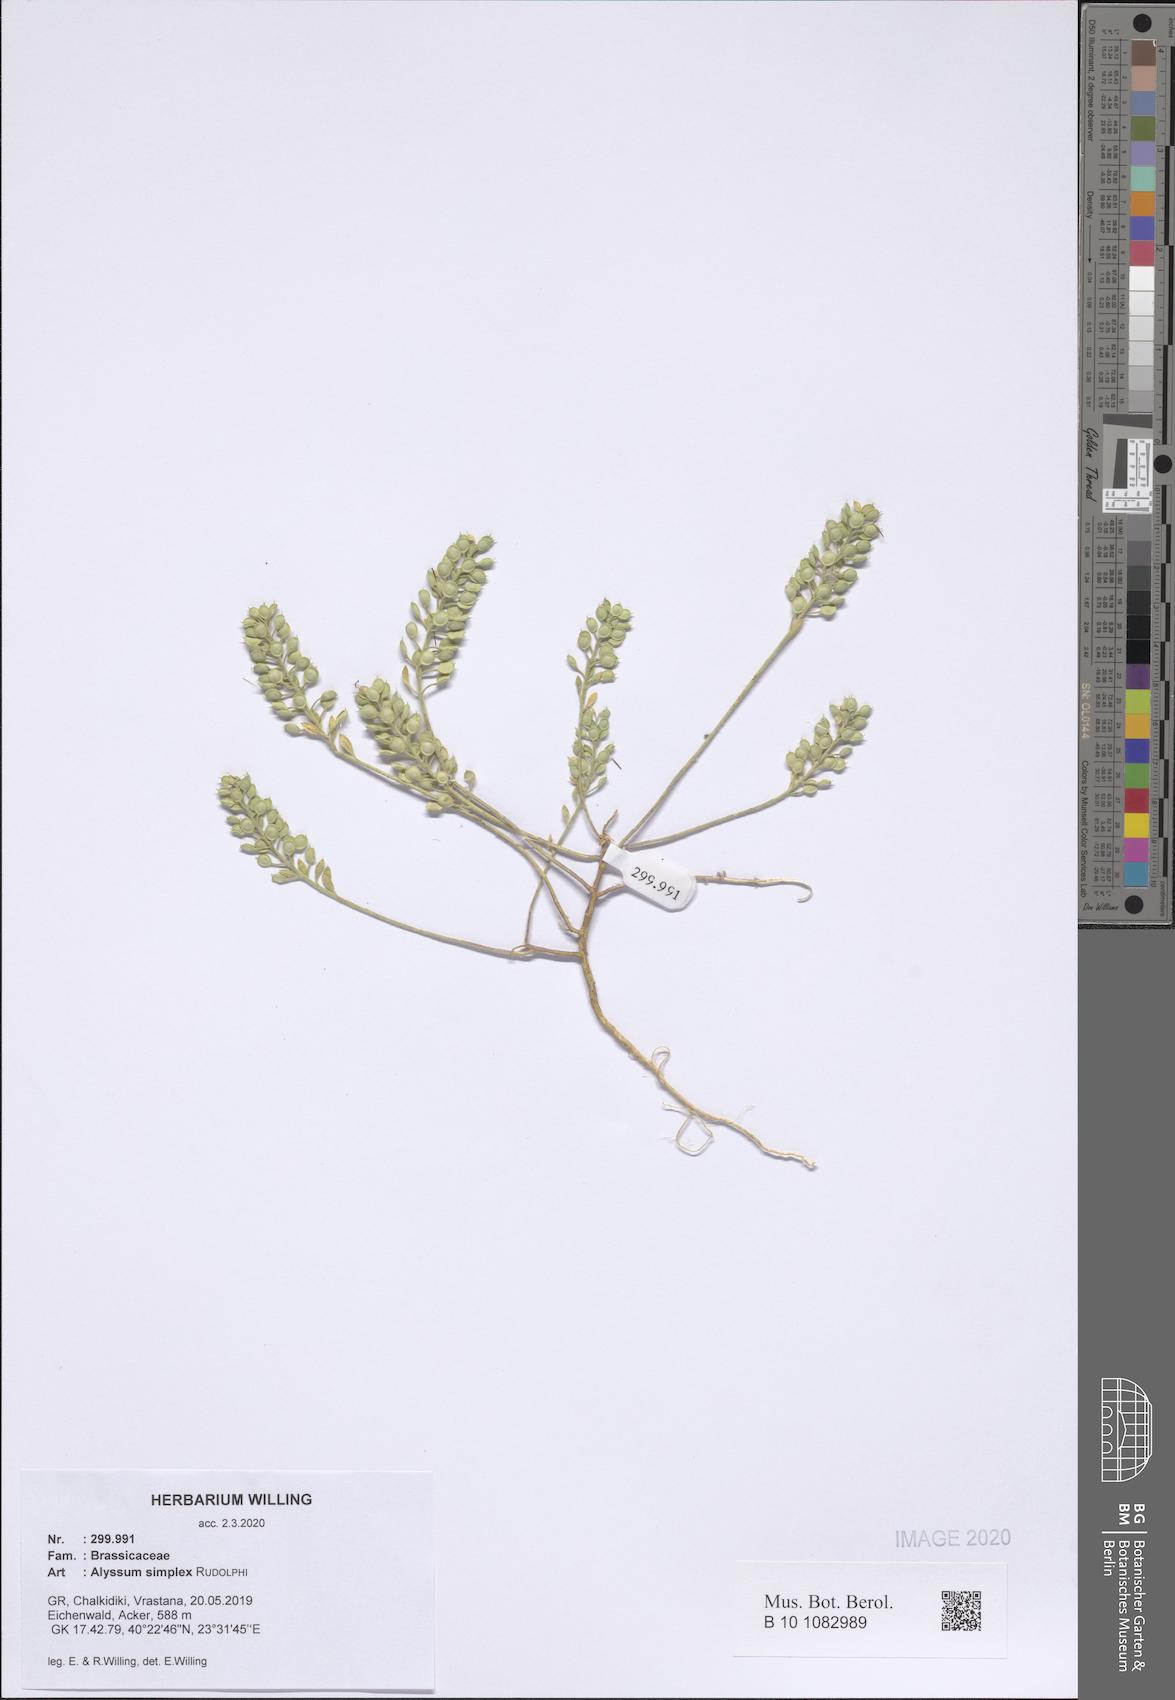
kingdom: Plantae
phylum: Tracheophyta
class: Magnoliopsida
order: Brassicales
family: Brassicaceae
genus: Alyssum
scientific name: Alyssum simplex
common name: Alyssum
